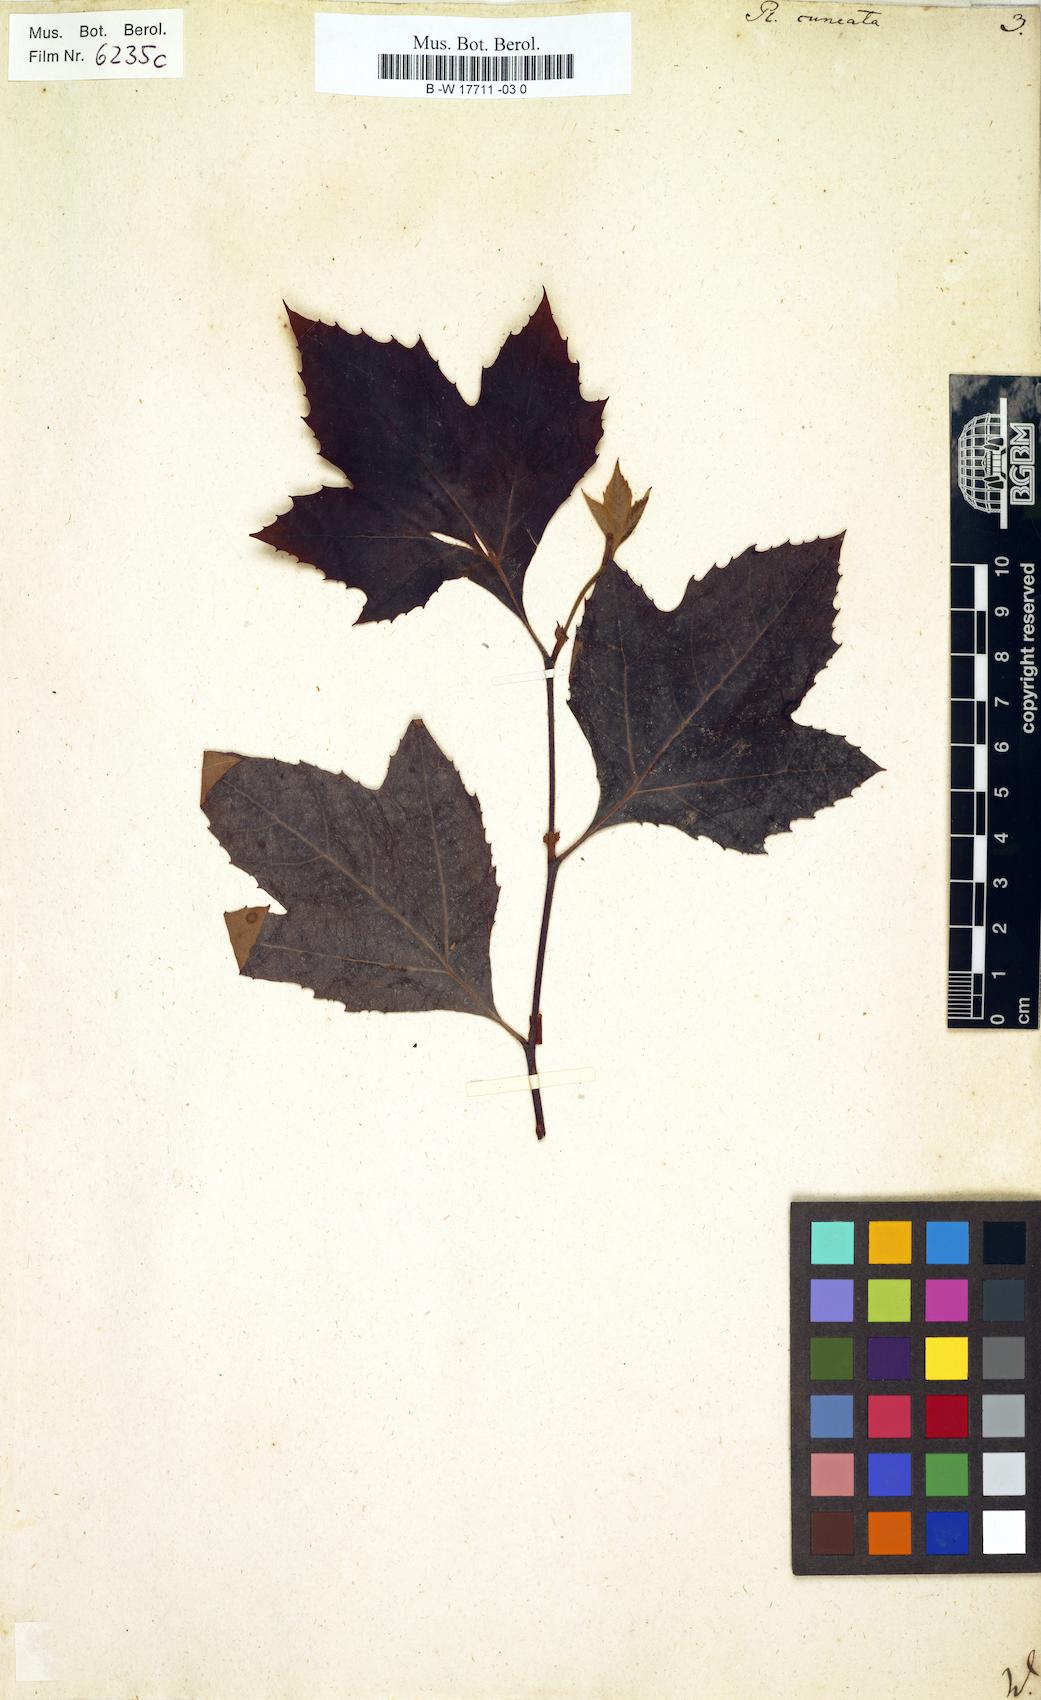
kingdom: Plantae
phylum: Tracheophyta
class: Magnoliopsida
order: Proteales
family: Platanaceae
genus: Platanus
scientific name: Platanus
